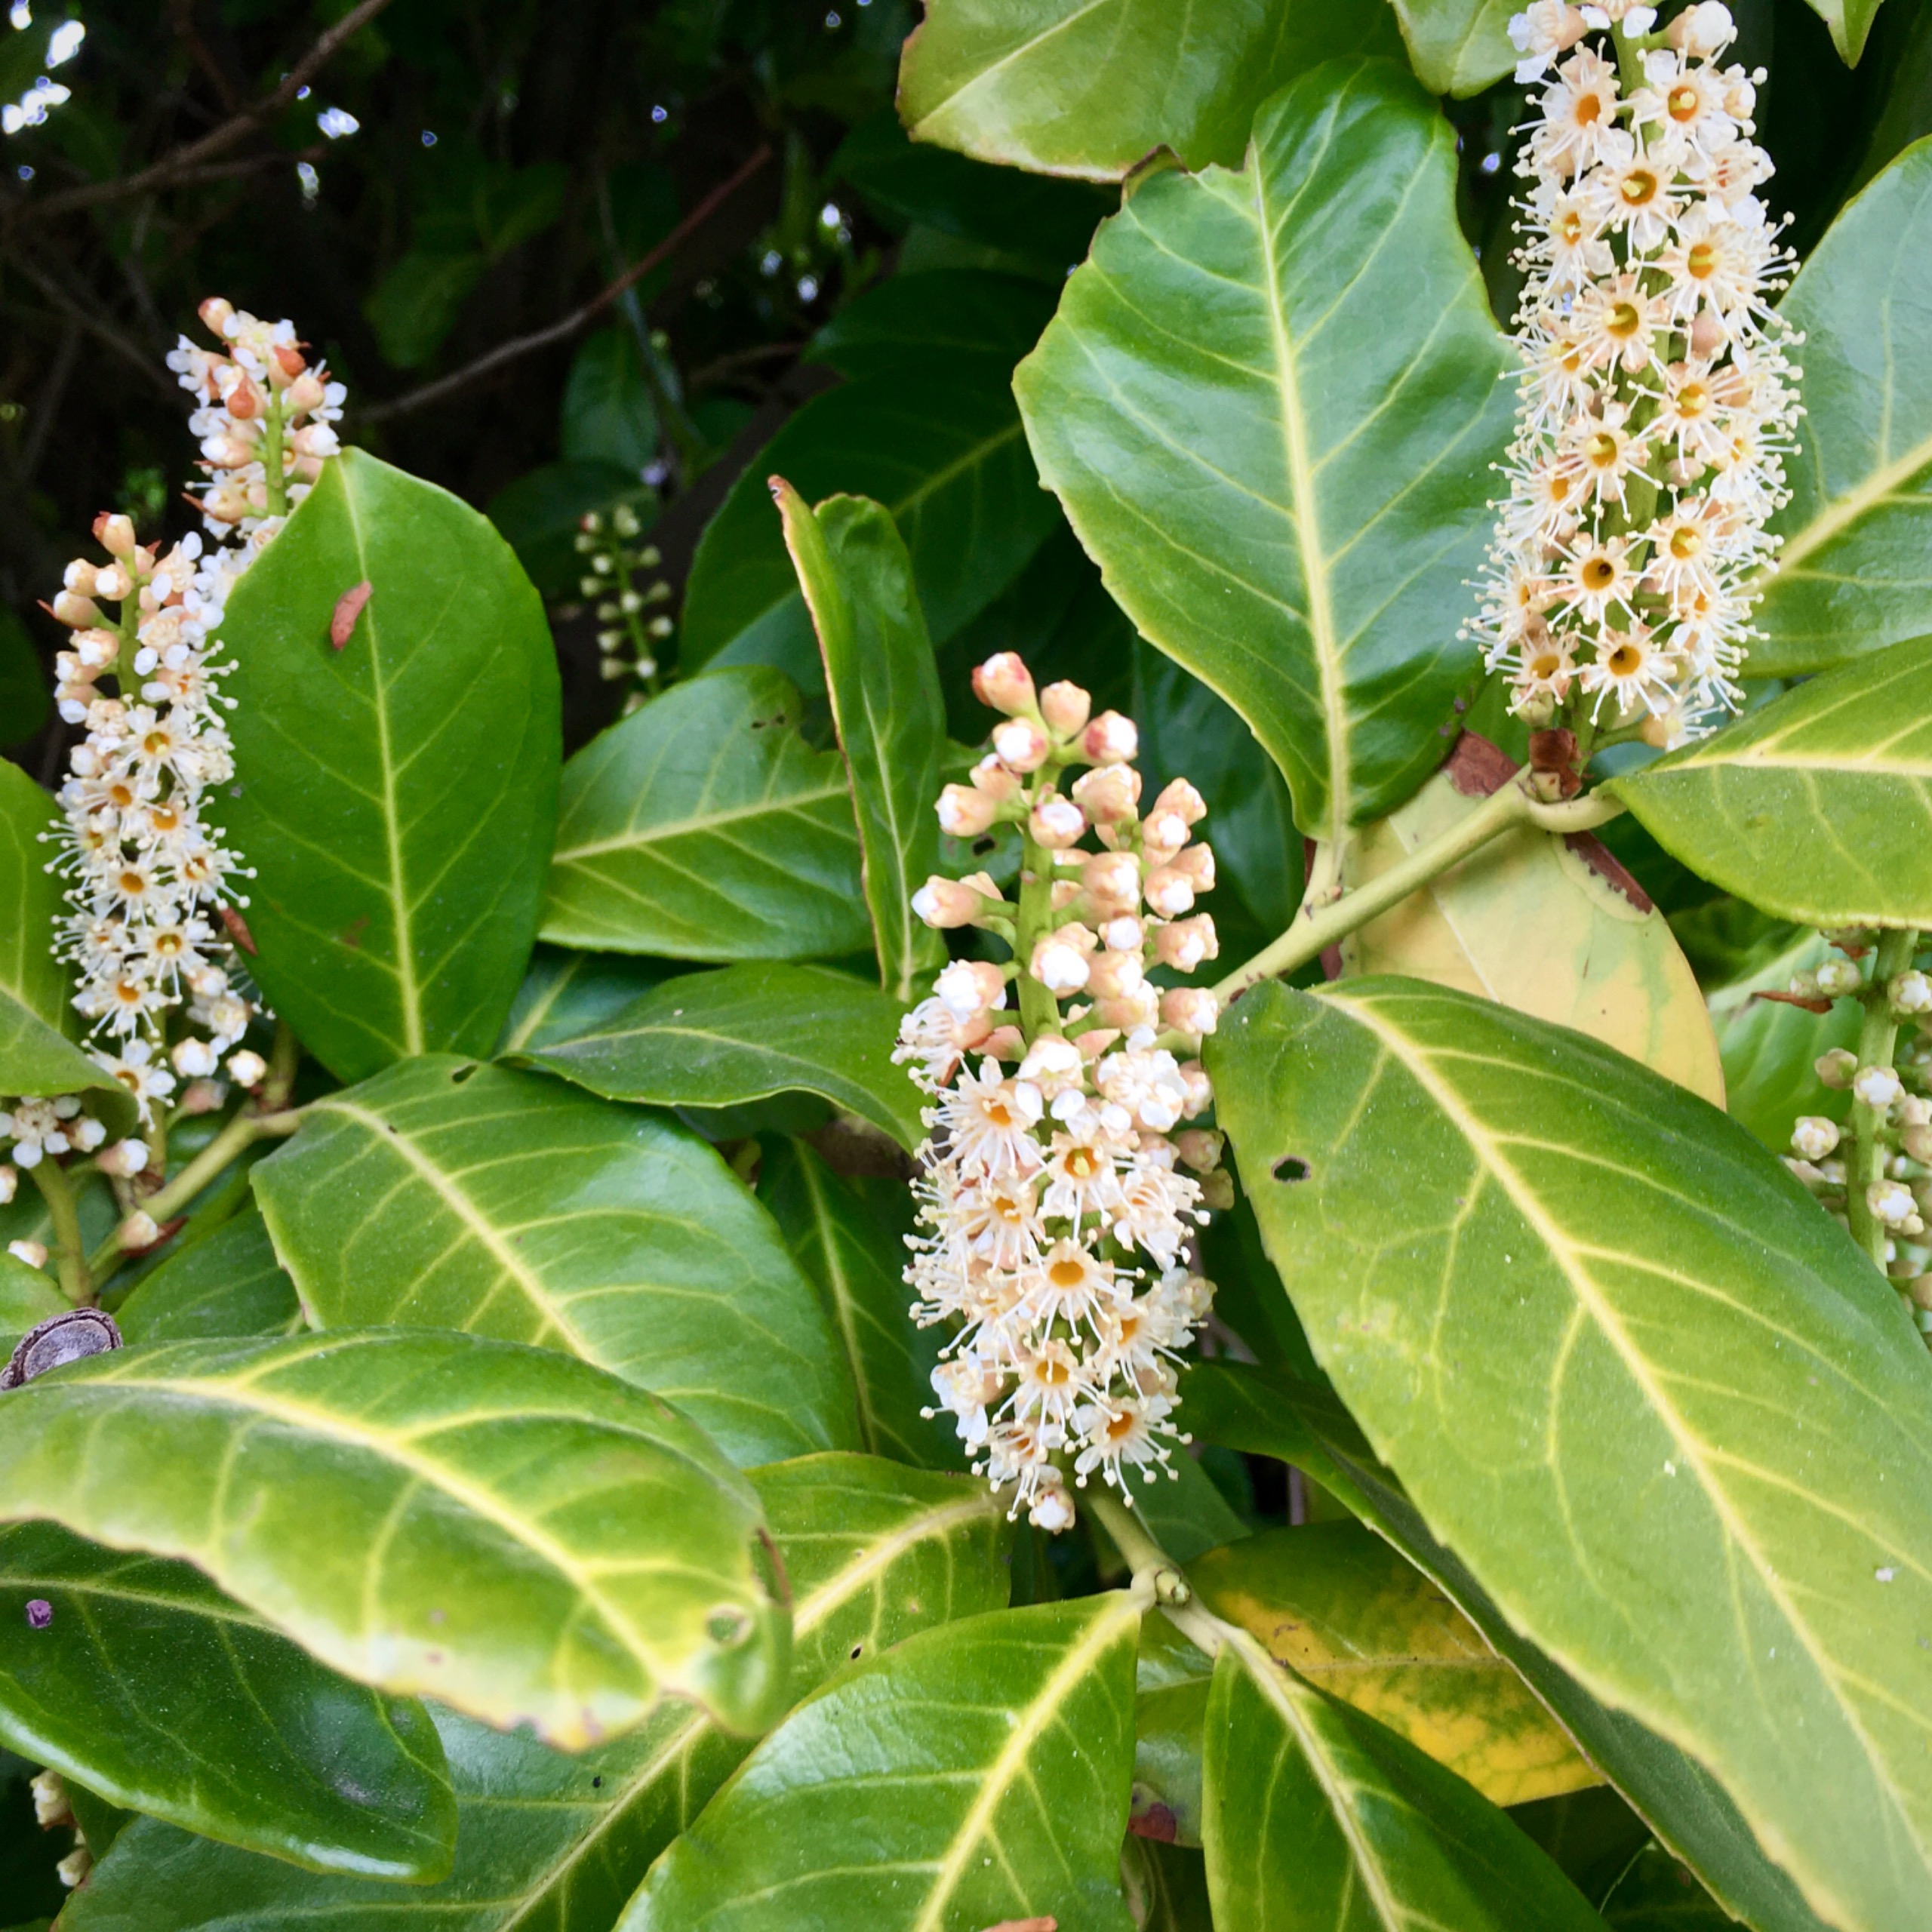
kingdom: Plantae
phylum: Tracheophyta
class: Magnoliopsida
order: Rosales
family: Rosaceae
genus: Prunus
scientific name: Prunus laurocerasus
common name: Laurbærkirsebær
